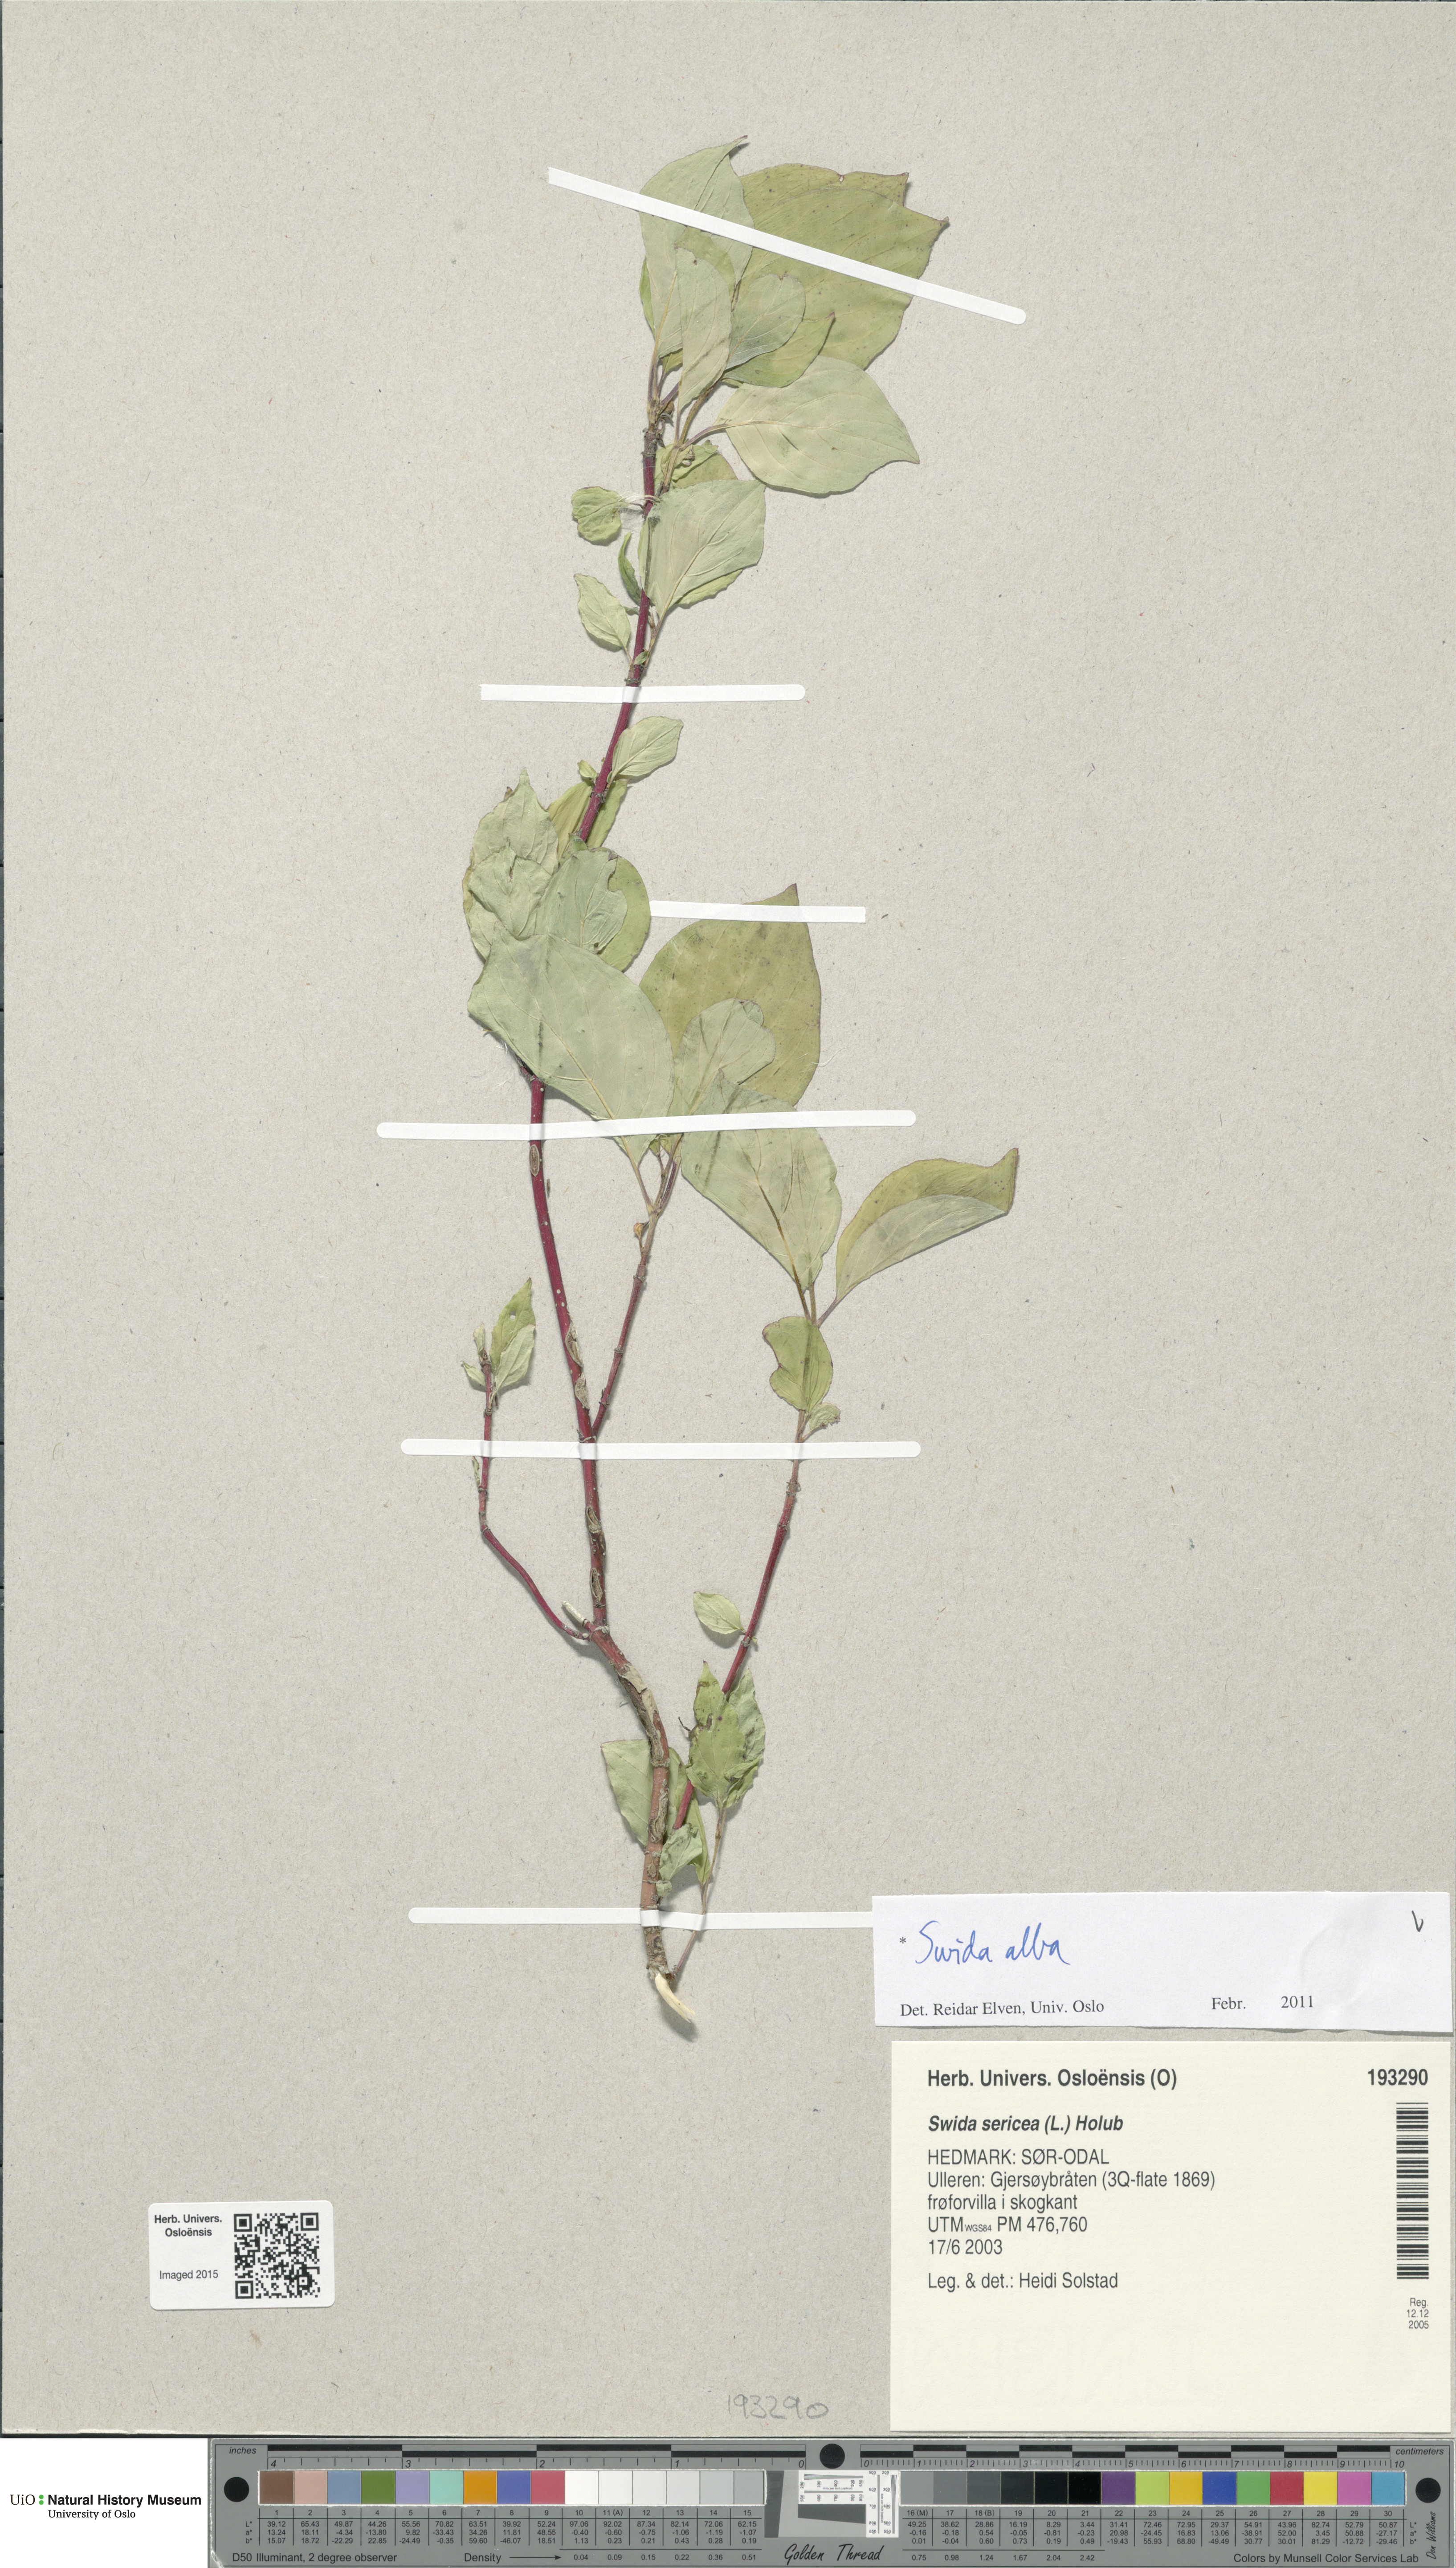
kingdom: Plantae
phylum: Tracheophyta
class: Magnoliopsida
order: Cornales
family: Cornaceae
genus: Cornus
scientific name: Cornus alba
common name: White dogwood
